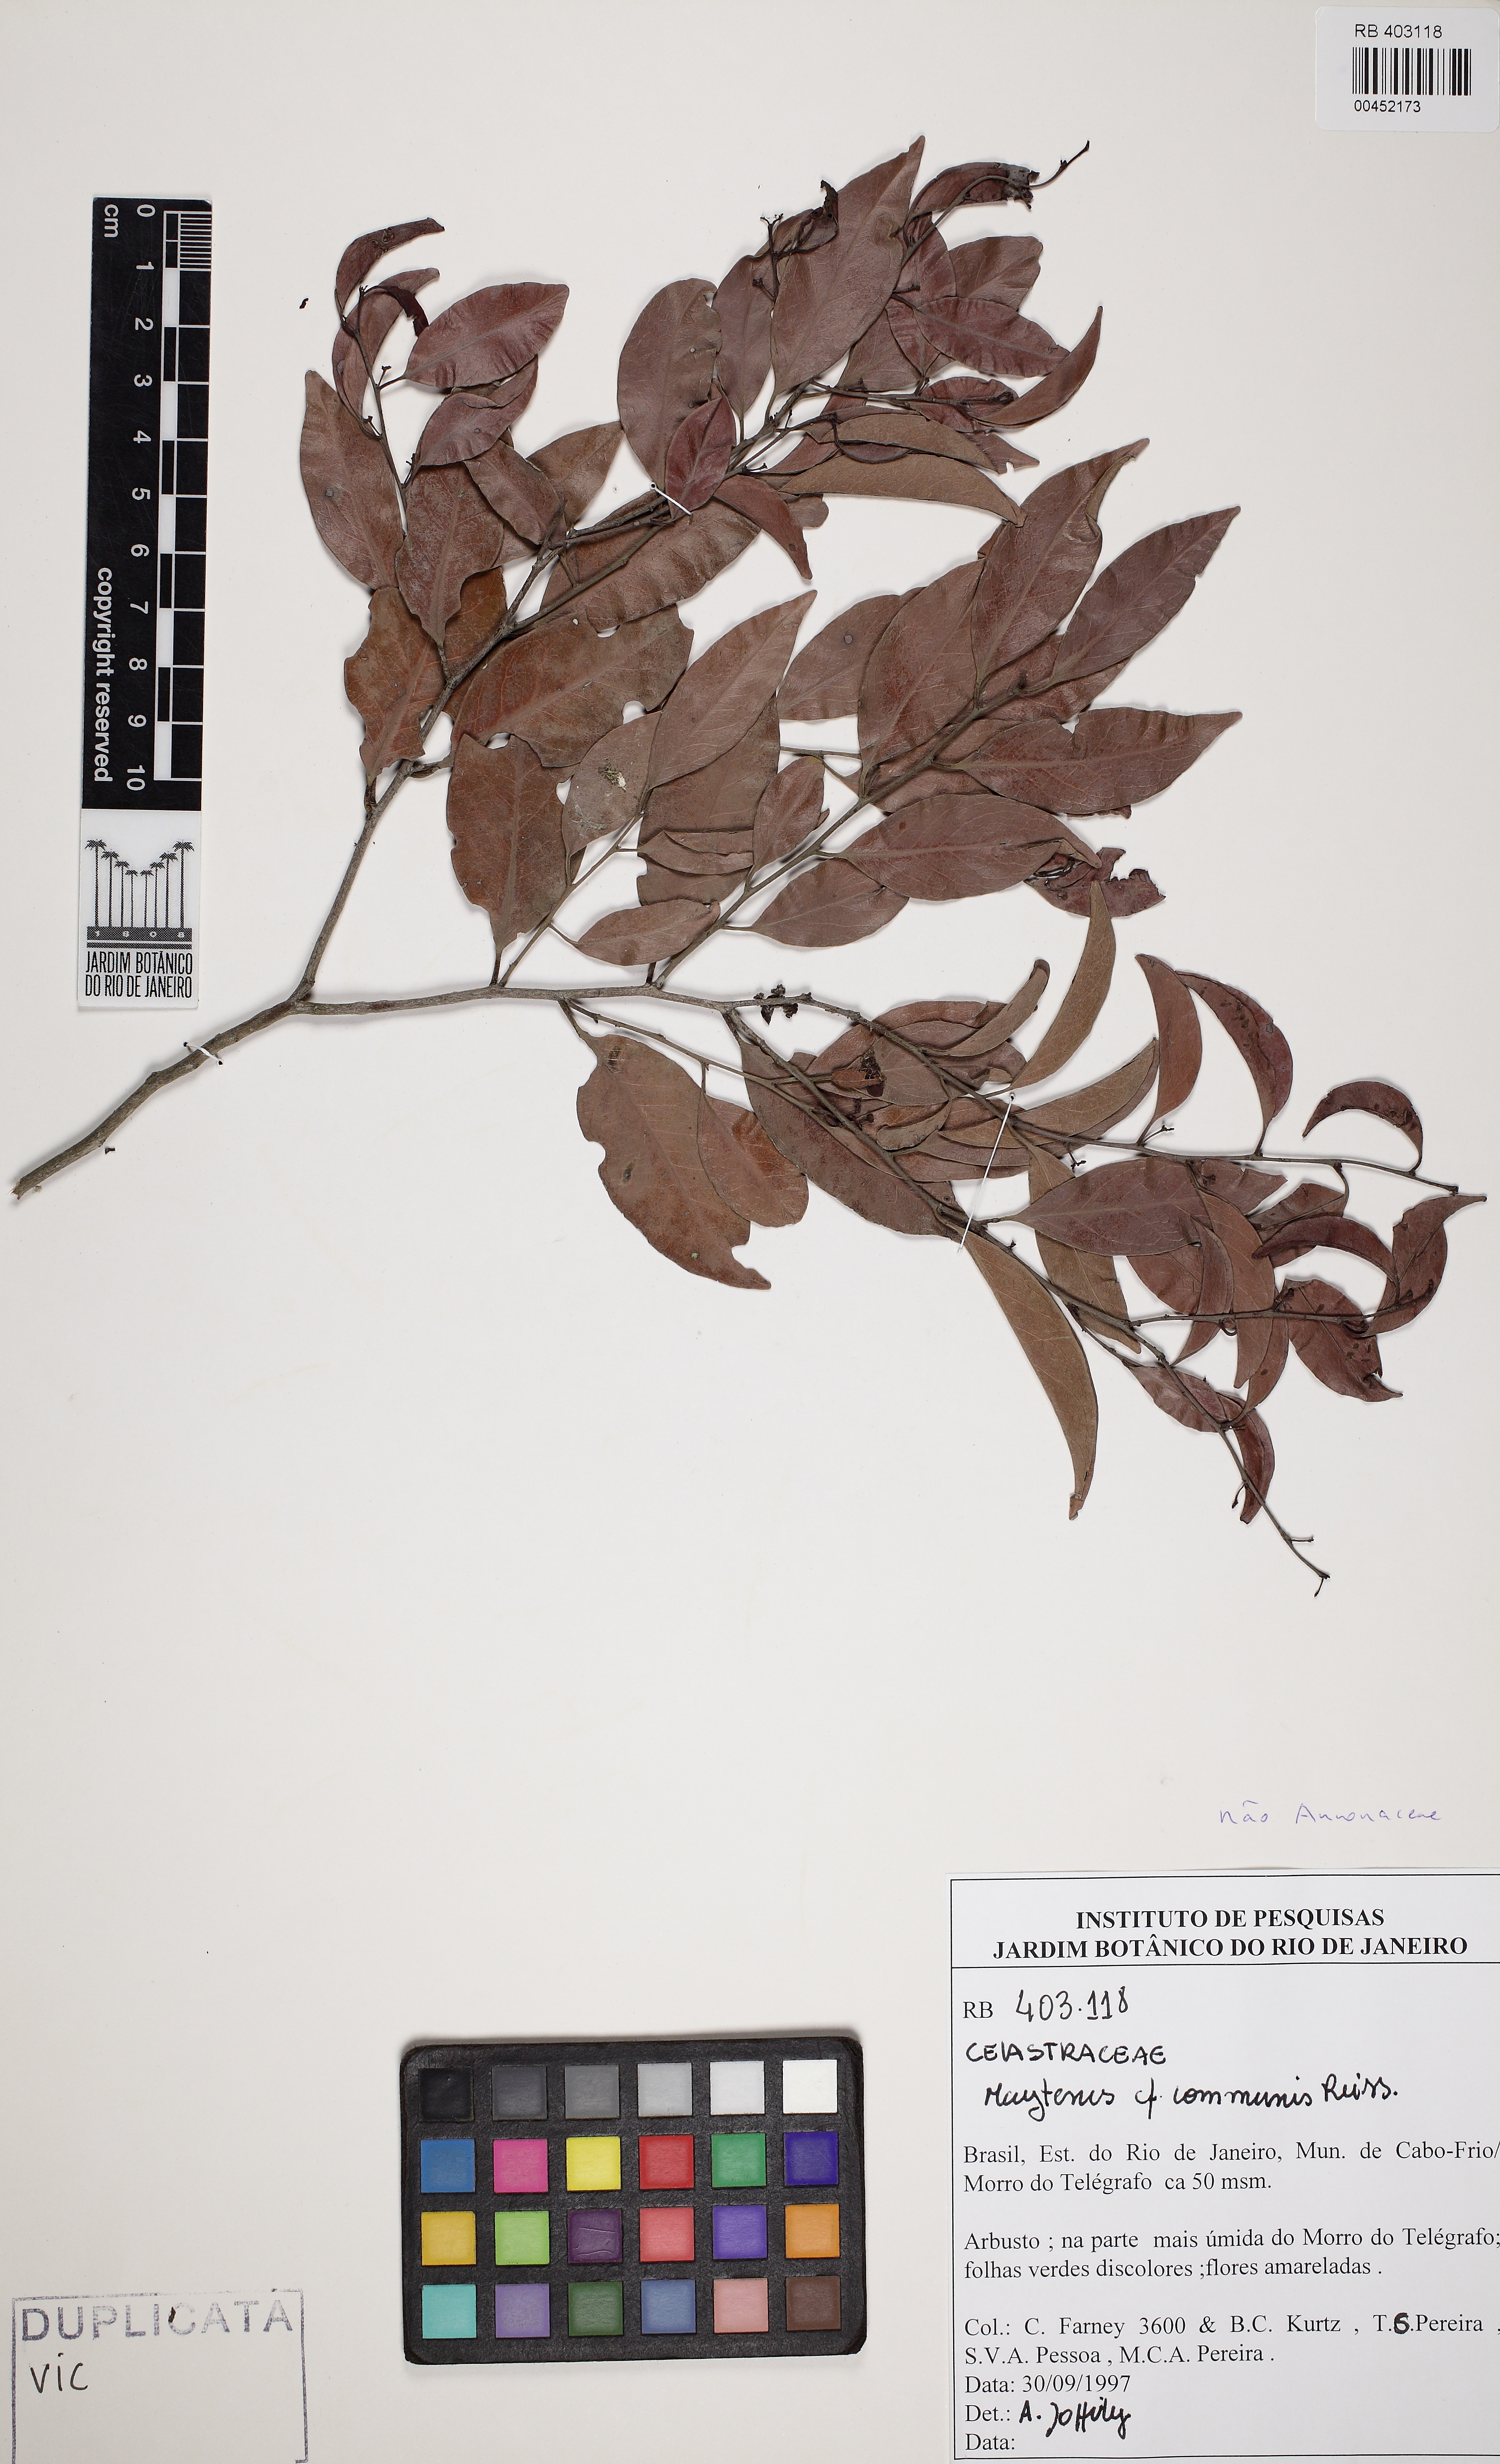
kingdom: Plantae
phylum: Tracheophyta
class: Magnoliopsida
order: Celastrales
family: Celastraceae
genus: Monteverdia
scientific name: Monteverdia communis
